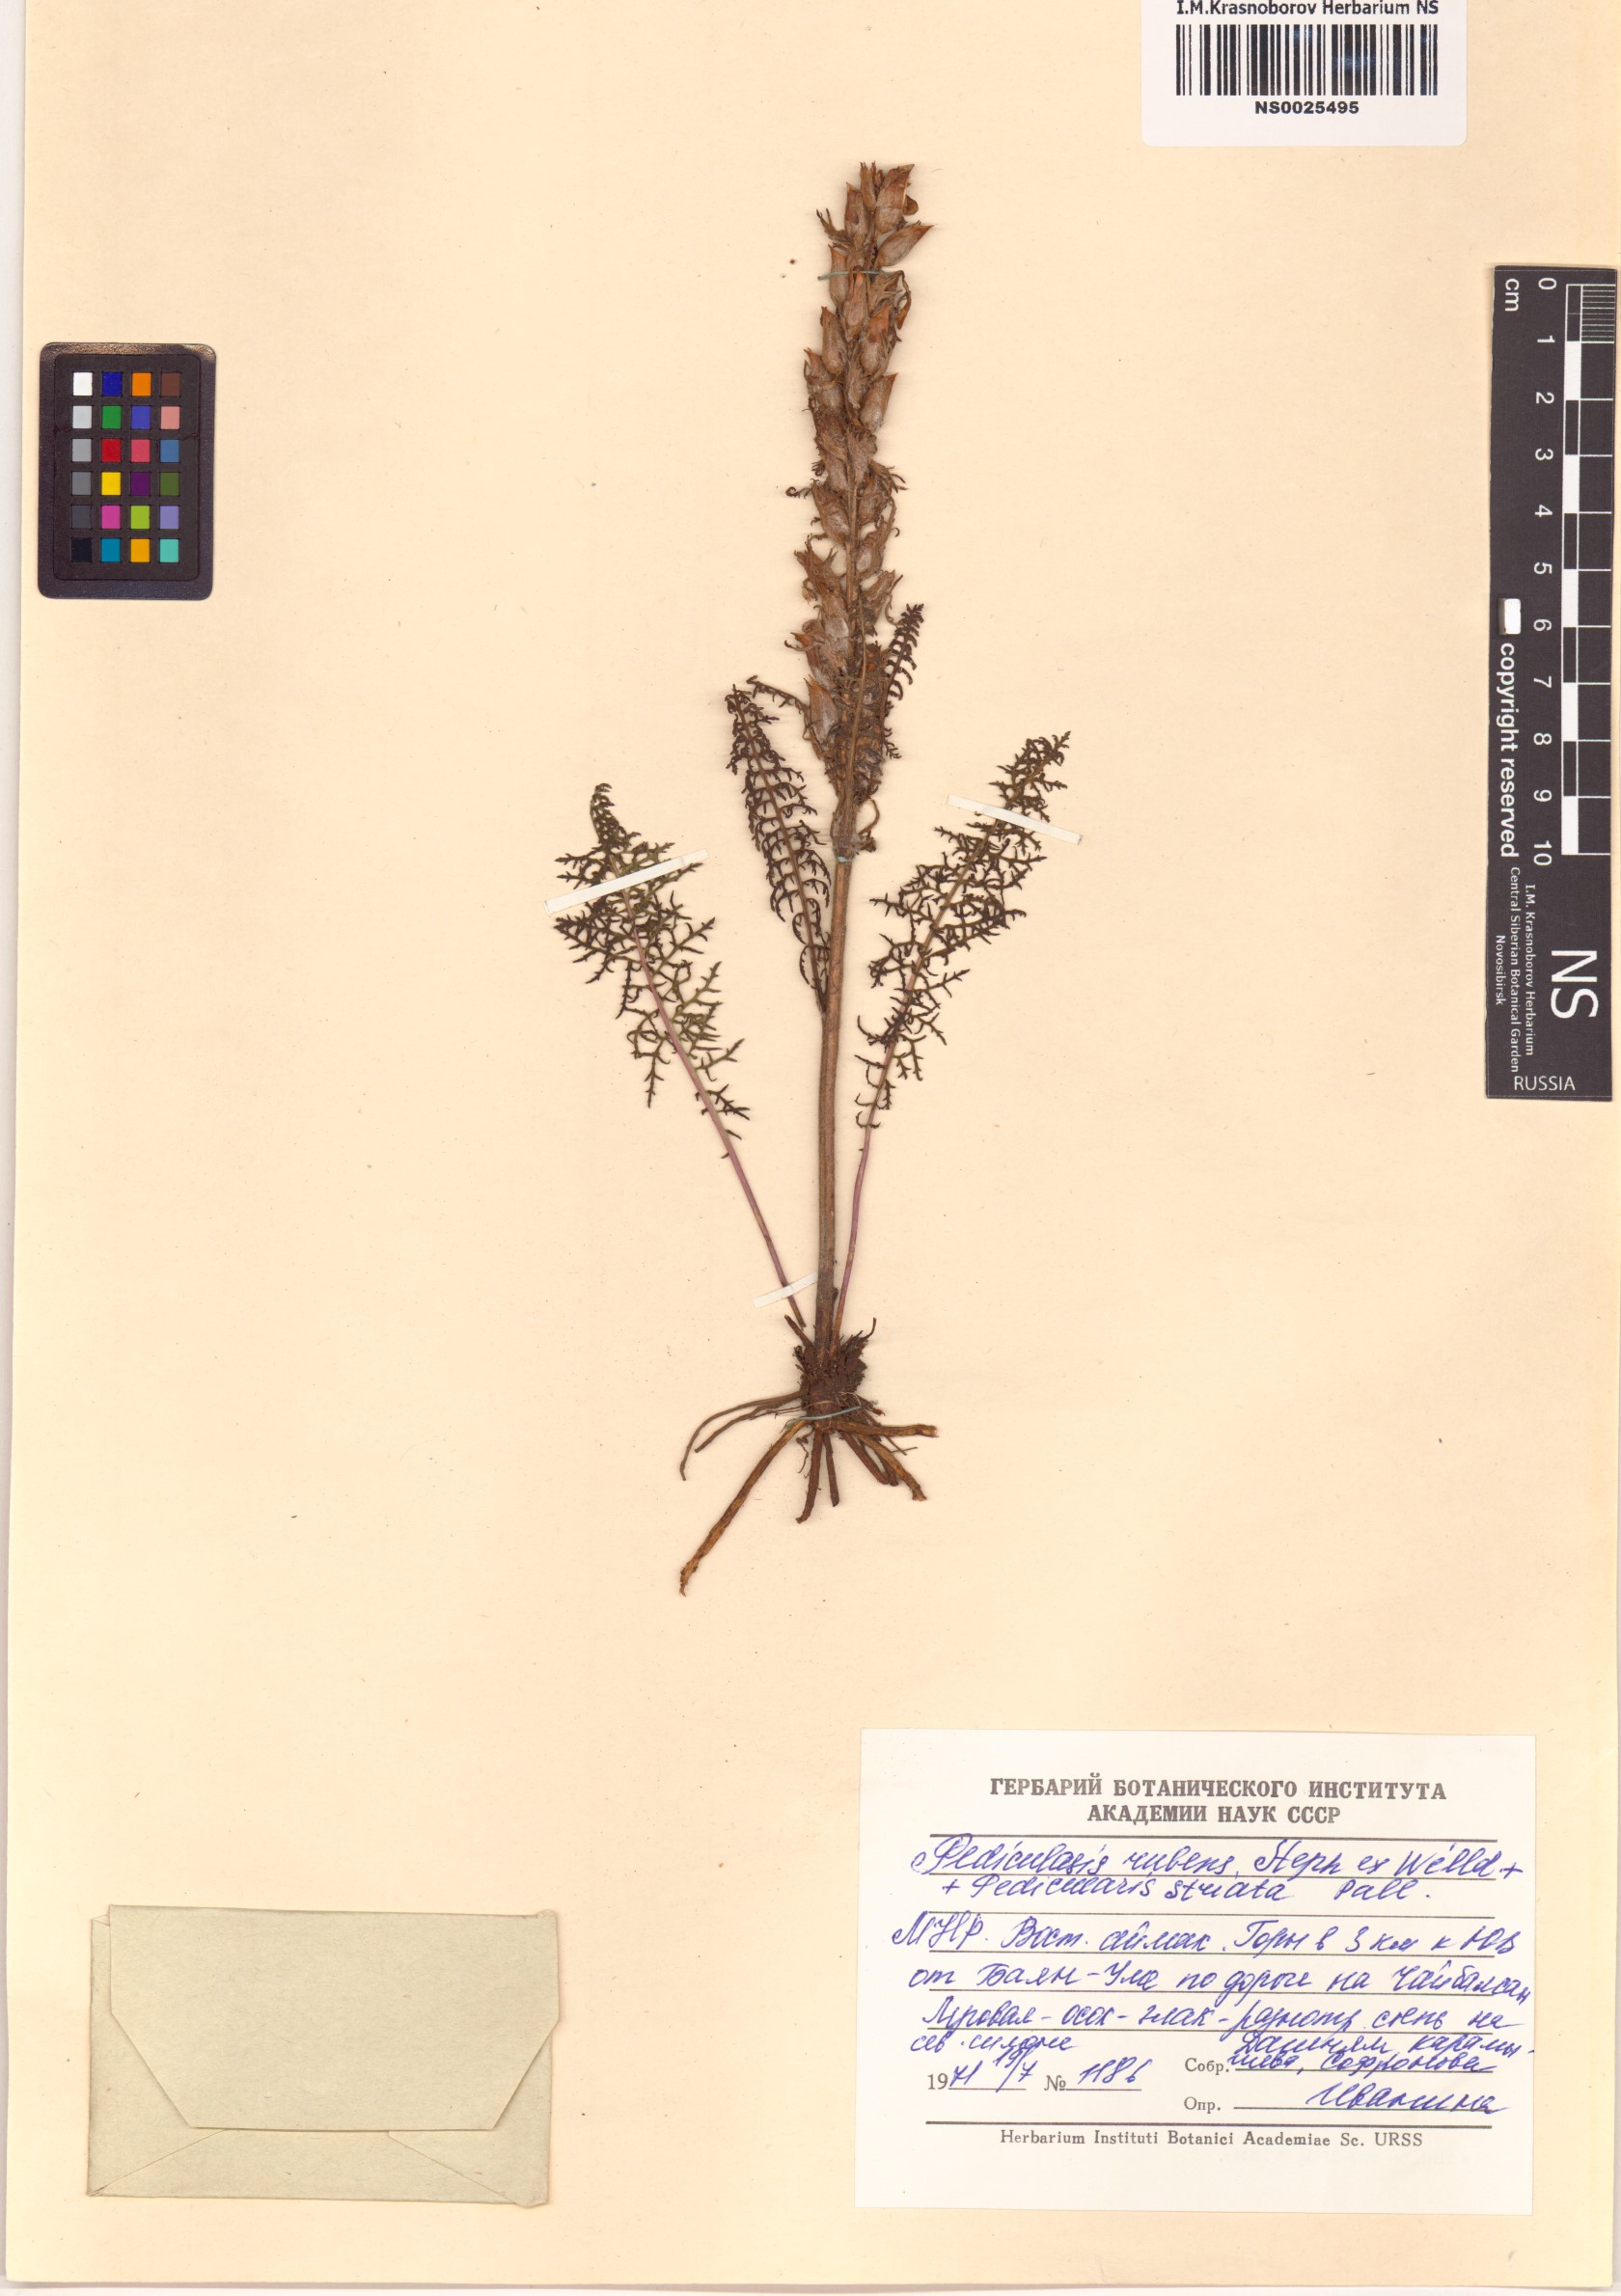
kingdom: Plantae
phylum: Tracheophyta
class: Magnoliopsida
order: Lamiales
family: Orobanchaceae
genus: Pedicularis
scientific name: Pedicularis rubens
